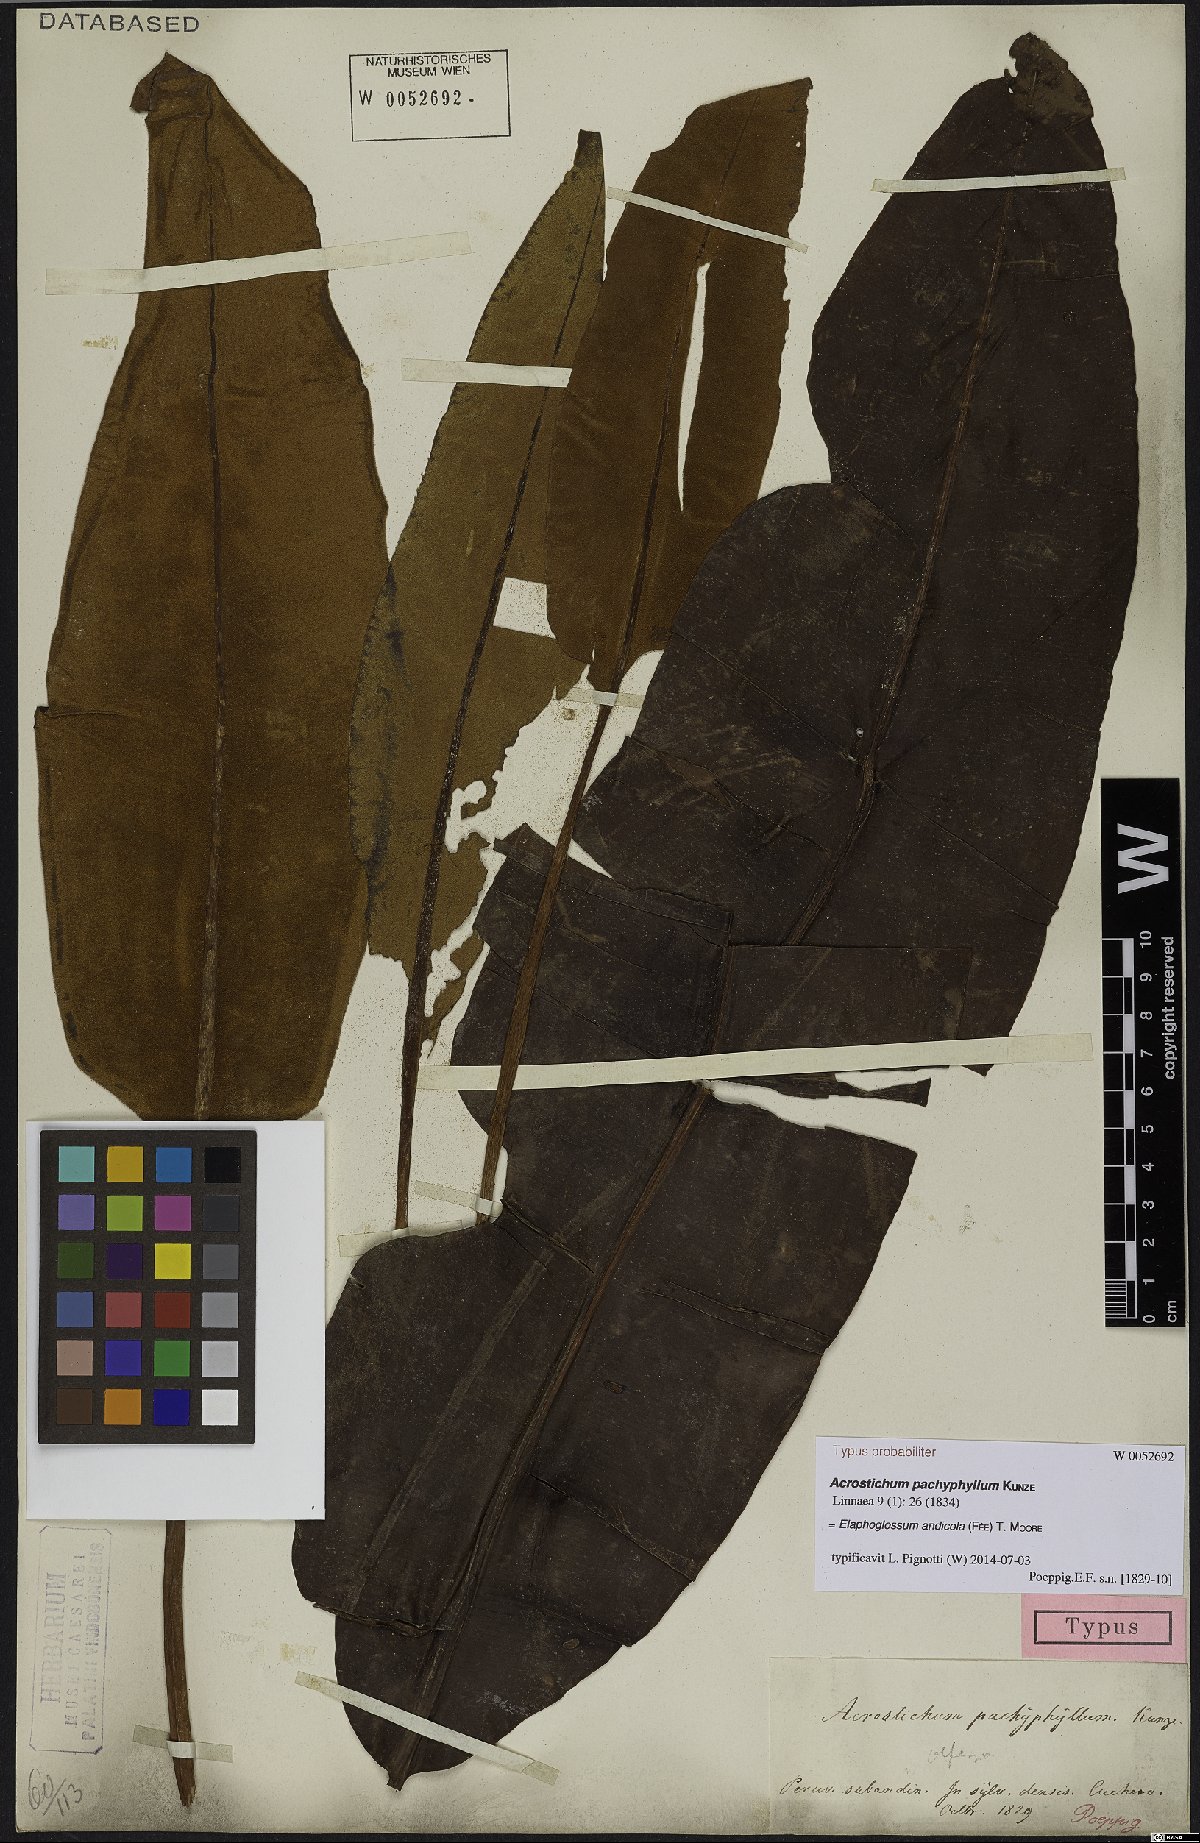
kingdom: Plantae
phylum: Tracheophyta
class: Polypodiopsida
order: Polypodiales
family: Dryopteridaceae
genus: Elaphoglossum
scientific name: Elaphoglossum andicola
